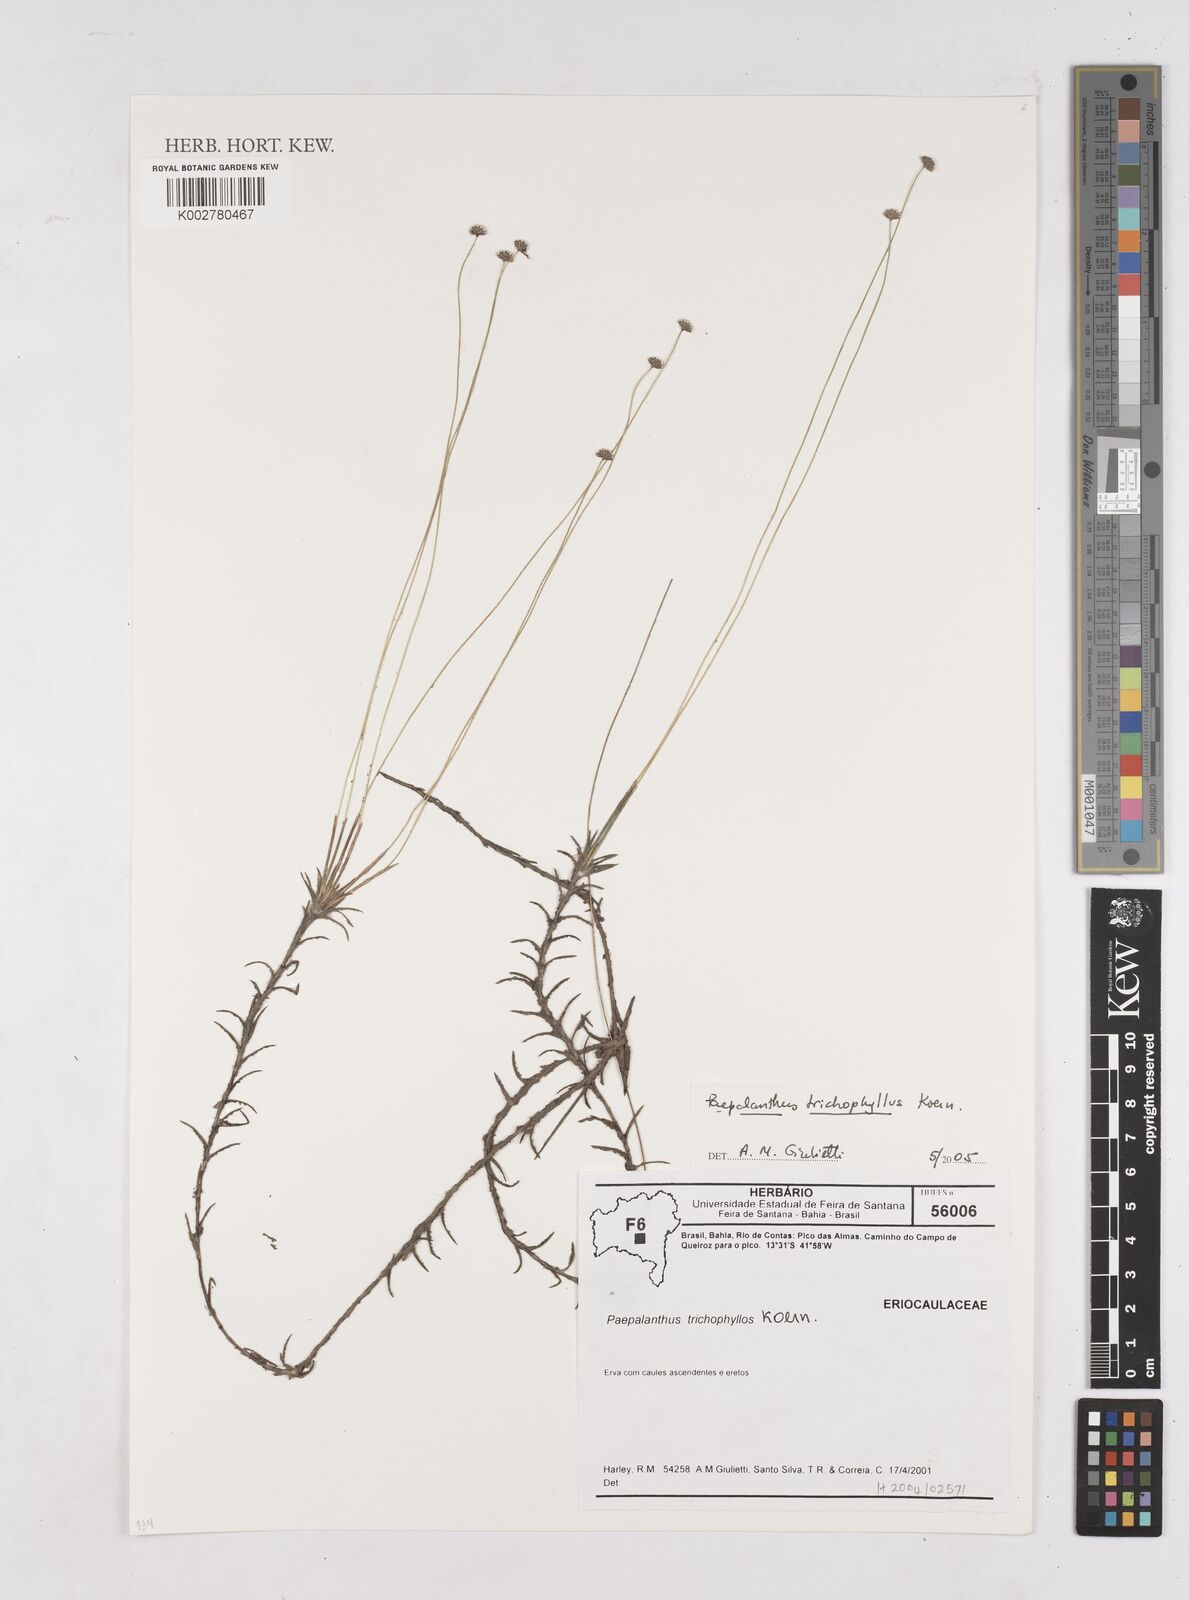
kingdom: Plantae
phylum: Tracheophyta
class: Liliopsida
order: Poales
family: Eriocaulaceae
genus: Paepalanthus
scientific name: Paepalanthus trichophyllus
